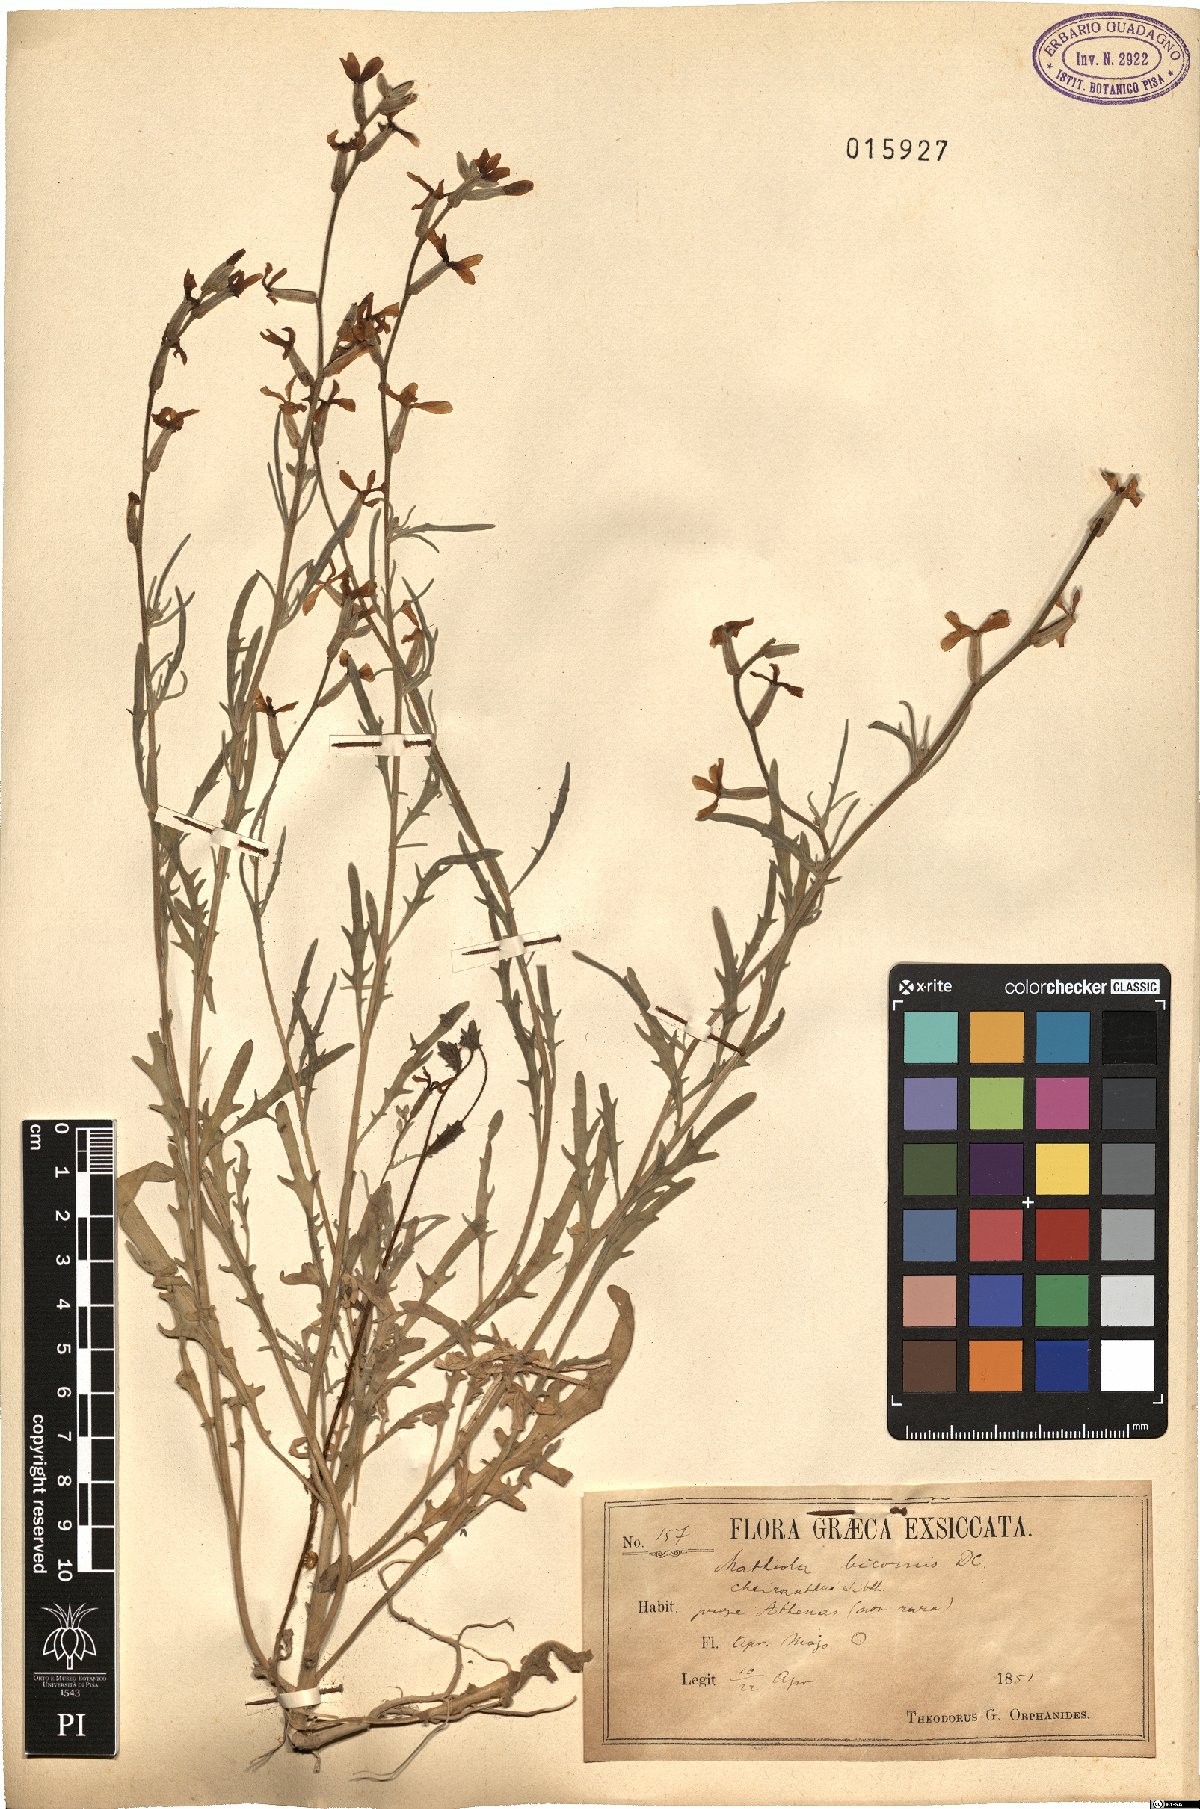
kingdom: Plantae
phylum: Tracheophyta
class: Magnoliopsida
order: Brassicales
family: Brassicaceae
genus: Matthiola
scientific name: Matthiola longipetala
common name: Night-scented stock
